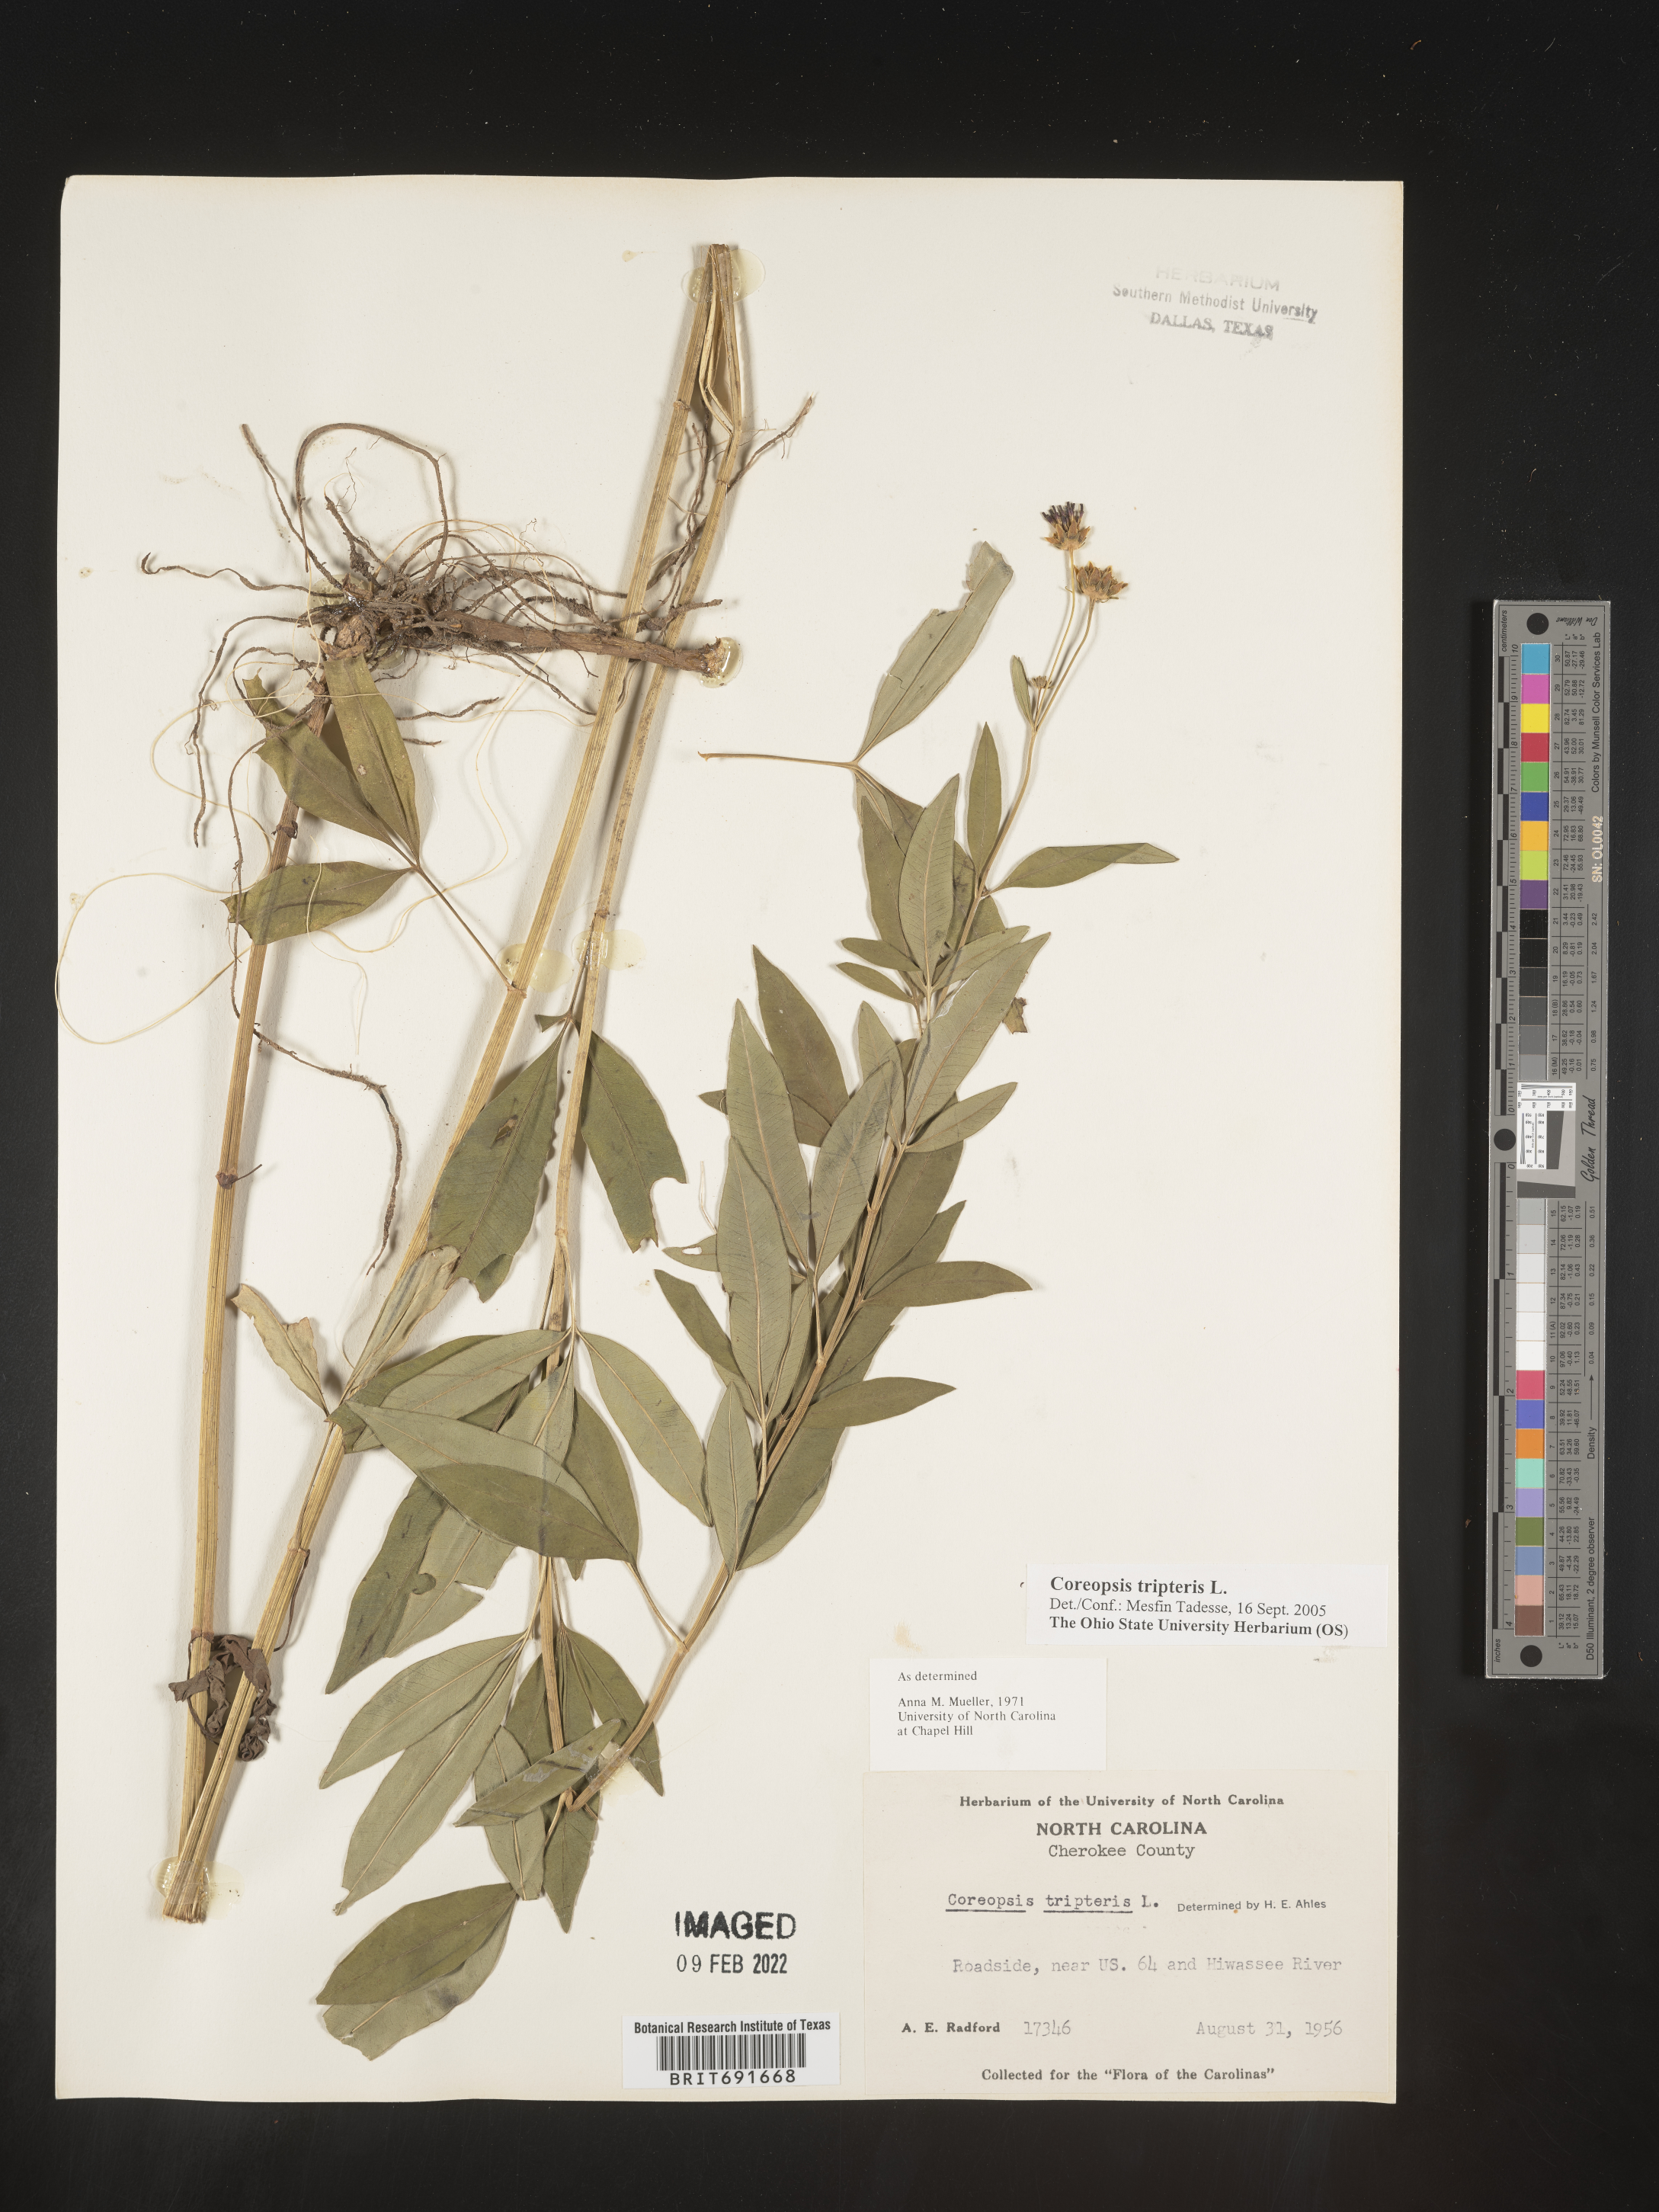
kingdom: Plantae
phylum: Tracheophyta
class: Magnoliopsida
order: Asterales
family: Asteraceae
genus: Coreopsis
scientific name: Coreopsis tripteris
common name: Tall coreopsis
